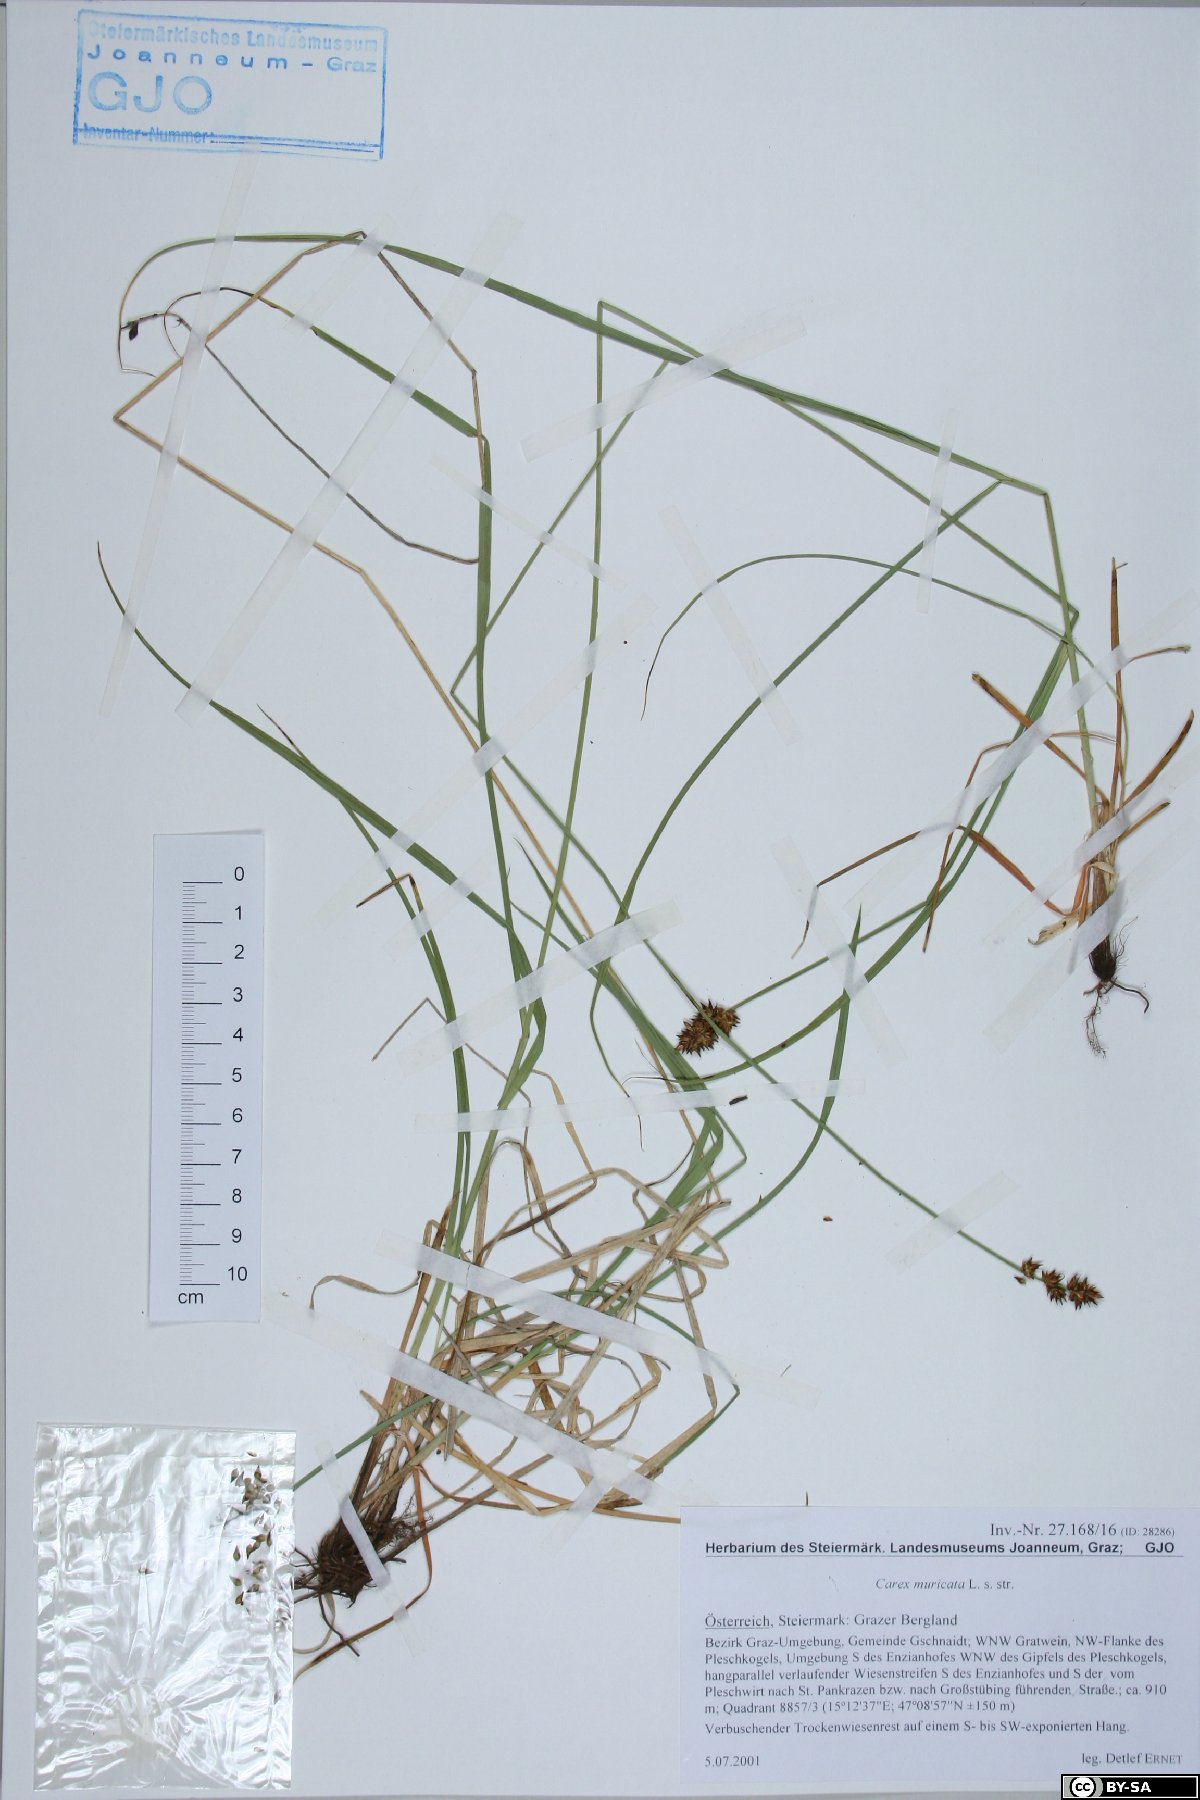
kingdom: Plantae
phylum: Tracheophyta
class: Liliopsida
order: Poales
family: Cyperaceae
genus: Carex
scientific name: Carex muricata
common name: Rough sedge
